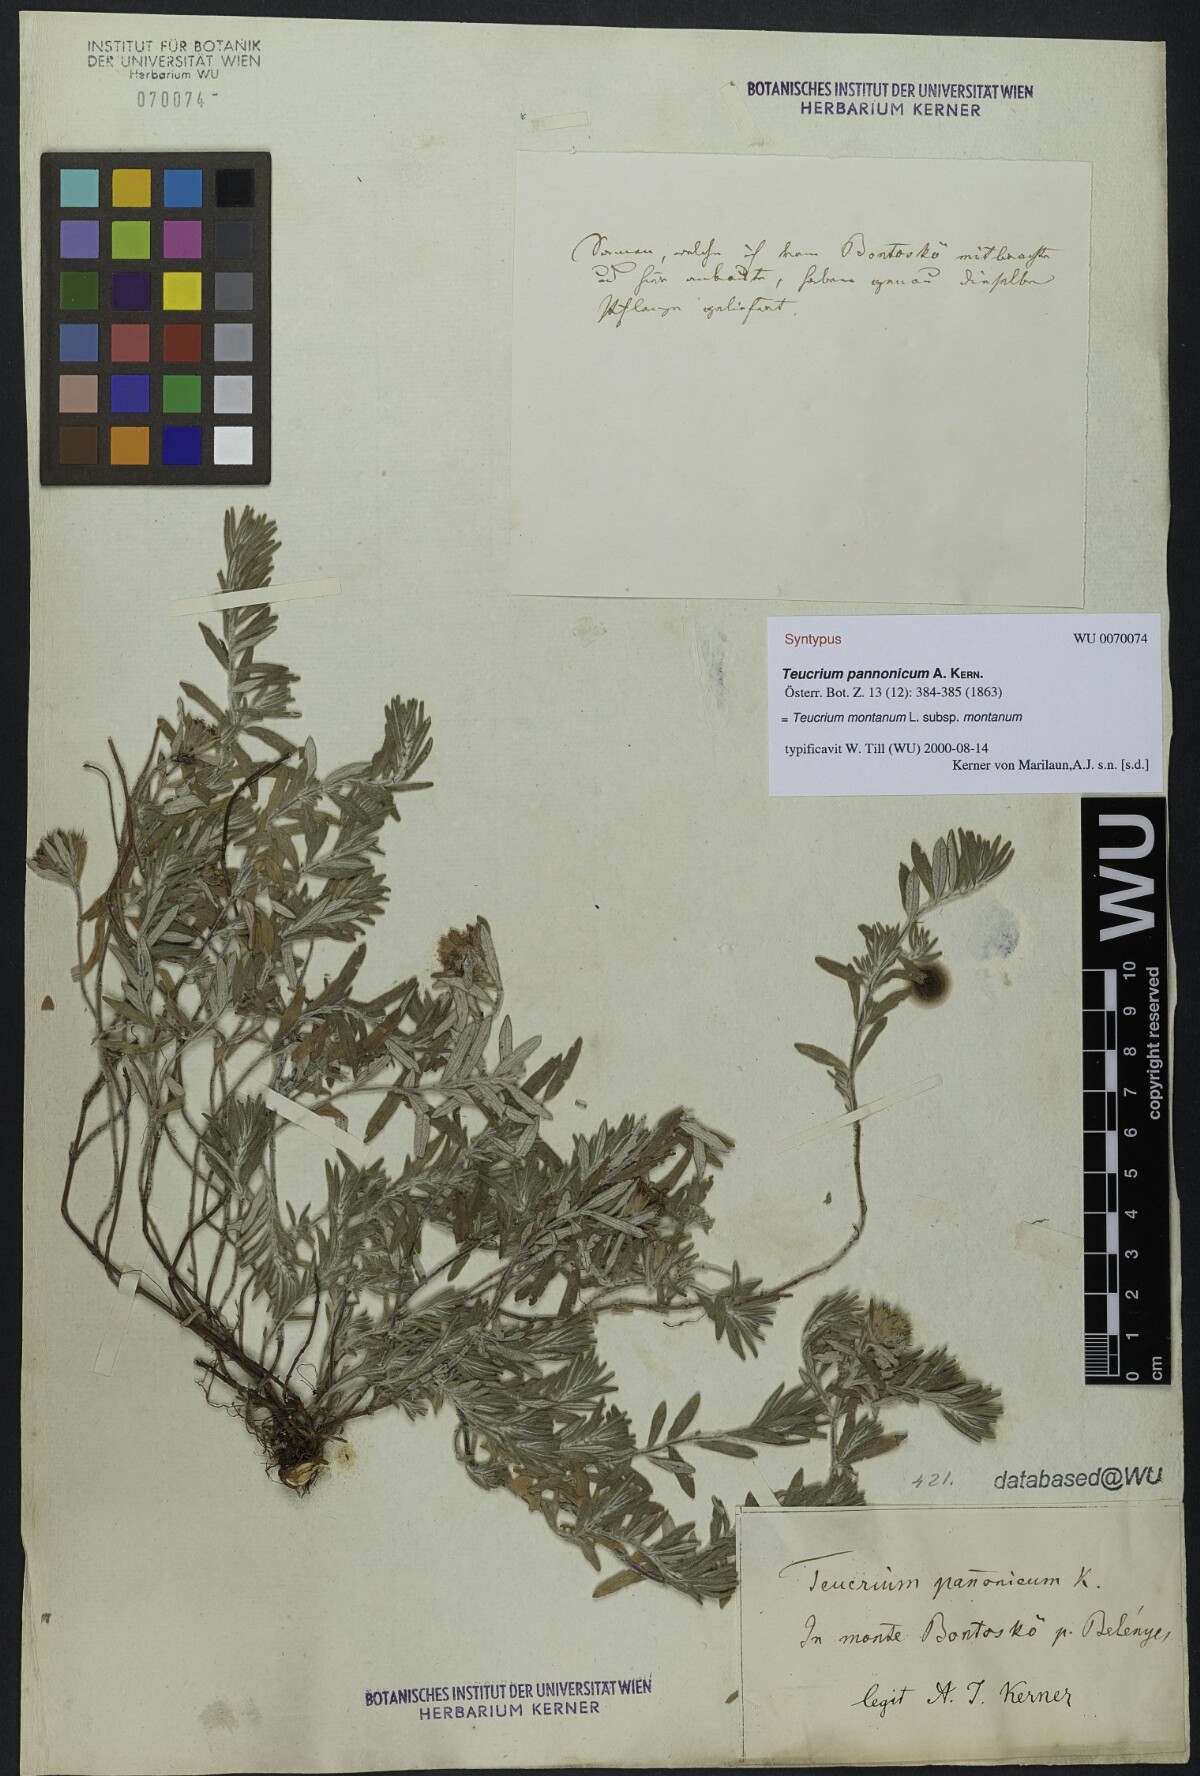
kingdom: Plantae
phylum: Tracheophyta
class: Magnoliopsida
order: Lamiales
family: Lamiaceae
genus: Teucrium
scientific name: Teucrium montanum
